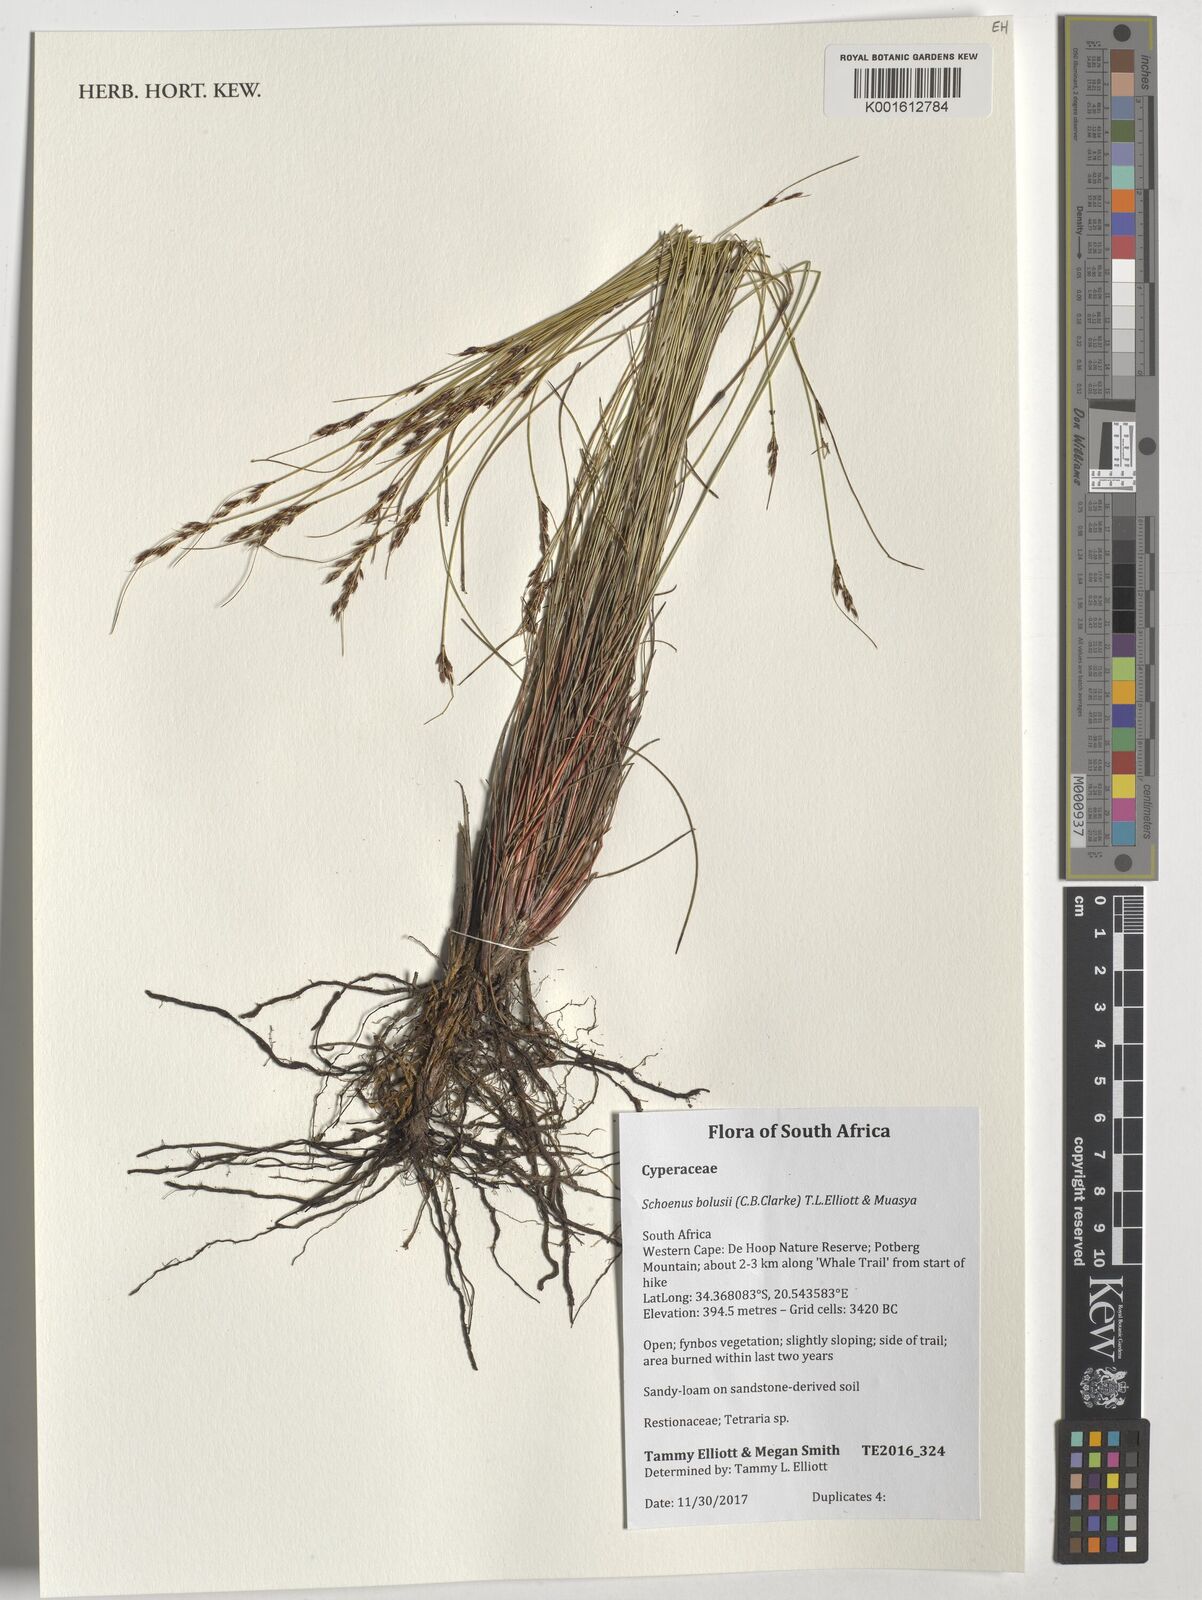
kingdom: Plantae
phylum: Tracheophyta
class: Liliopsida
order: Poales
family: Cyperaceae
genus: Schoenus
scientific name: Schoenus bolusii
